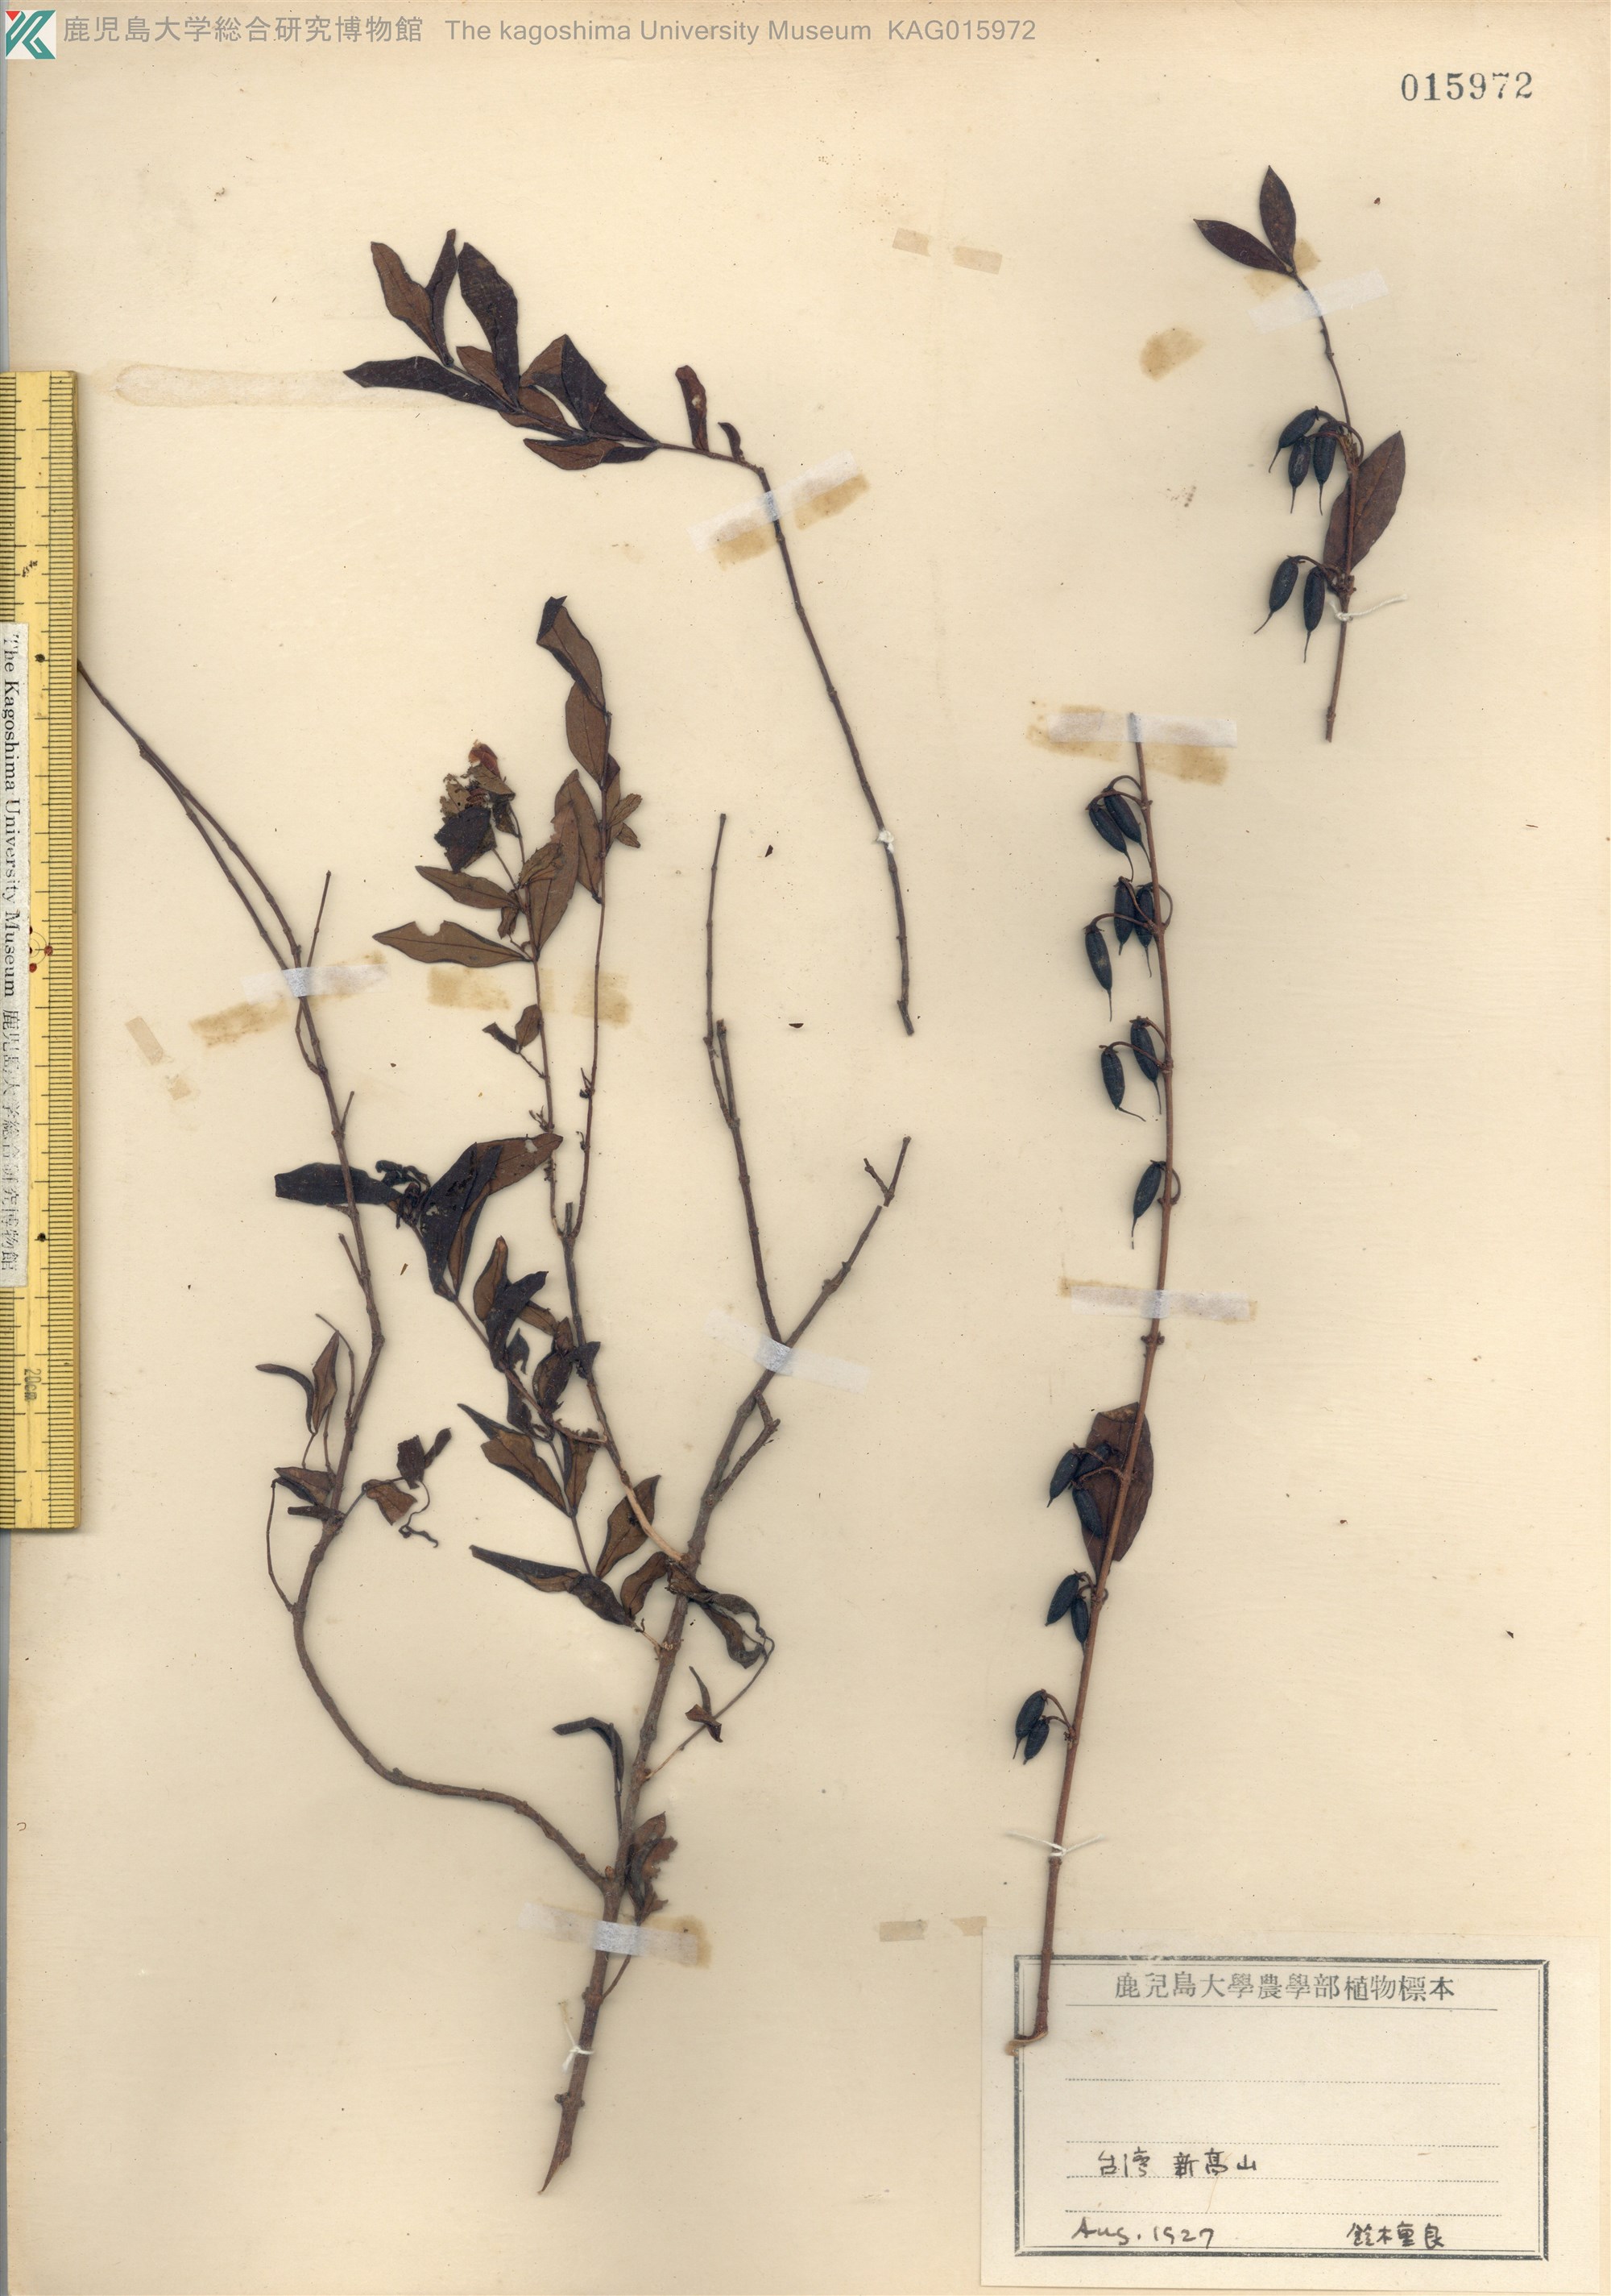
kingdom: Plantae
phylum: Tracheophyta
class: Magnoliopsida
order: Malpighiales
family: Hypericaceae
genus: Hypericum
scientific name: Hypericum geminiflorum
